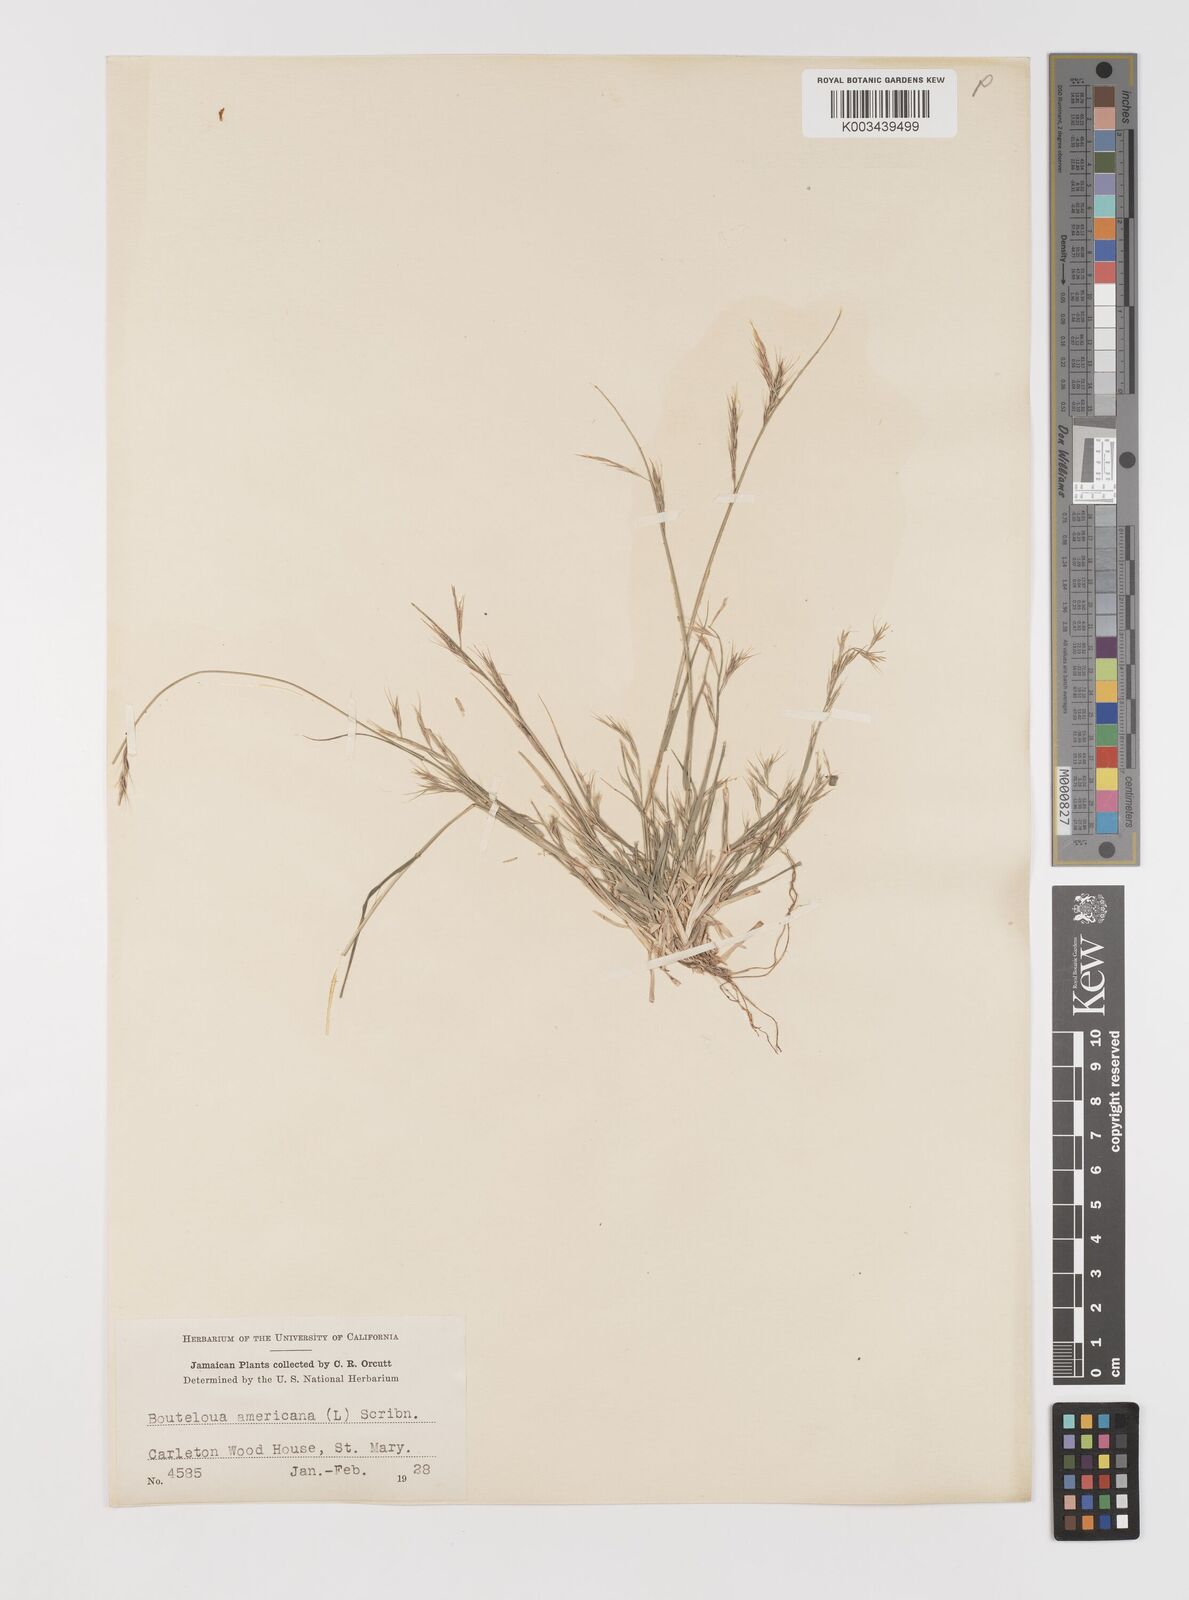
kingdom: Plantae
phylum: Tracheophyta
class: Liliopsida
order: Poales
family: Poaceae
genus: Bouteloua
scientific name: Bouteloua americana
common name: Mule grass
